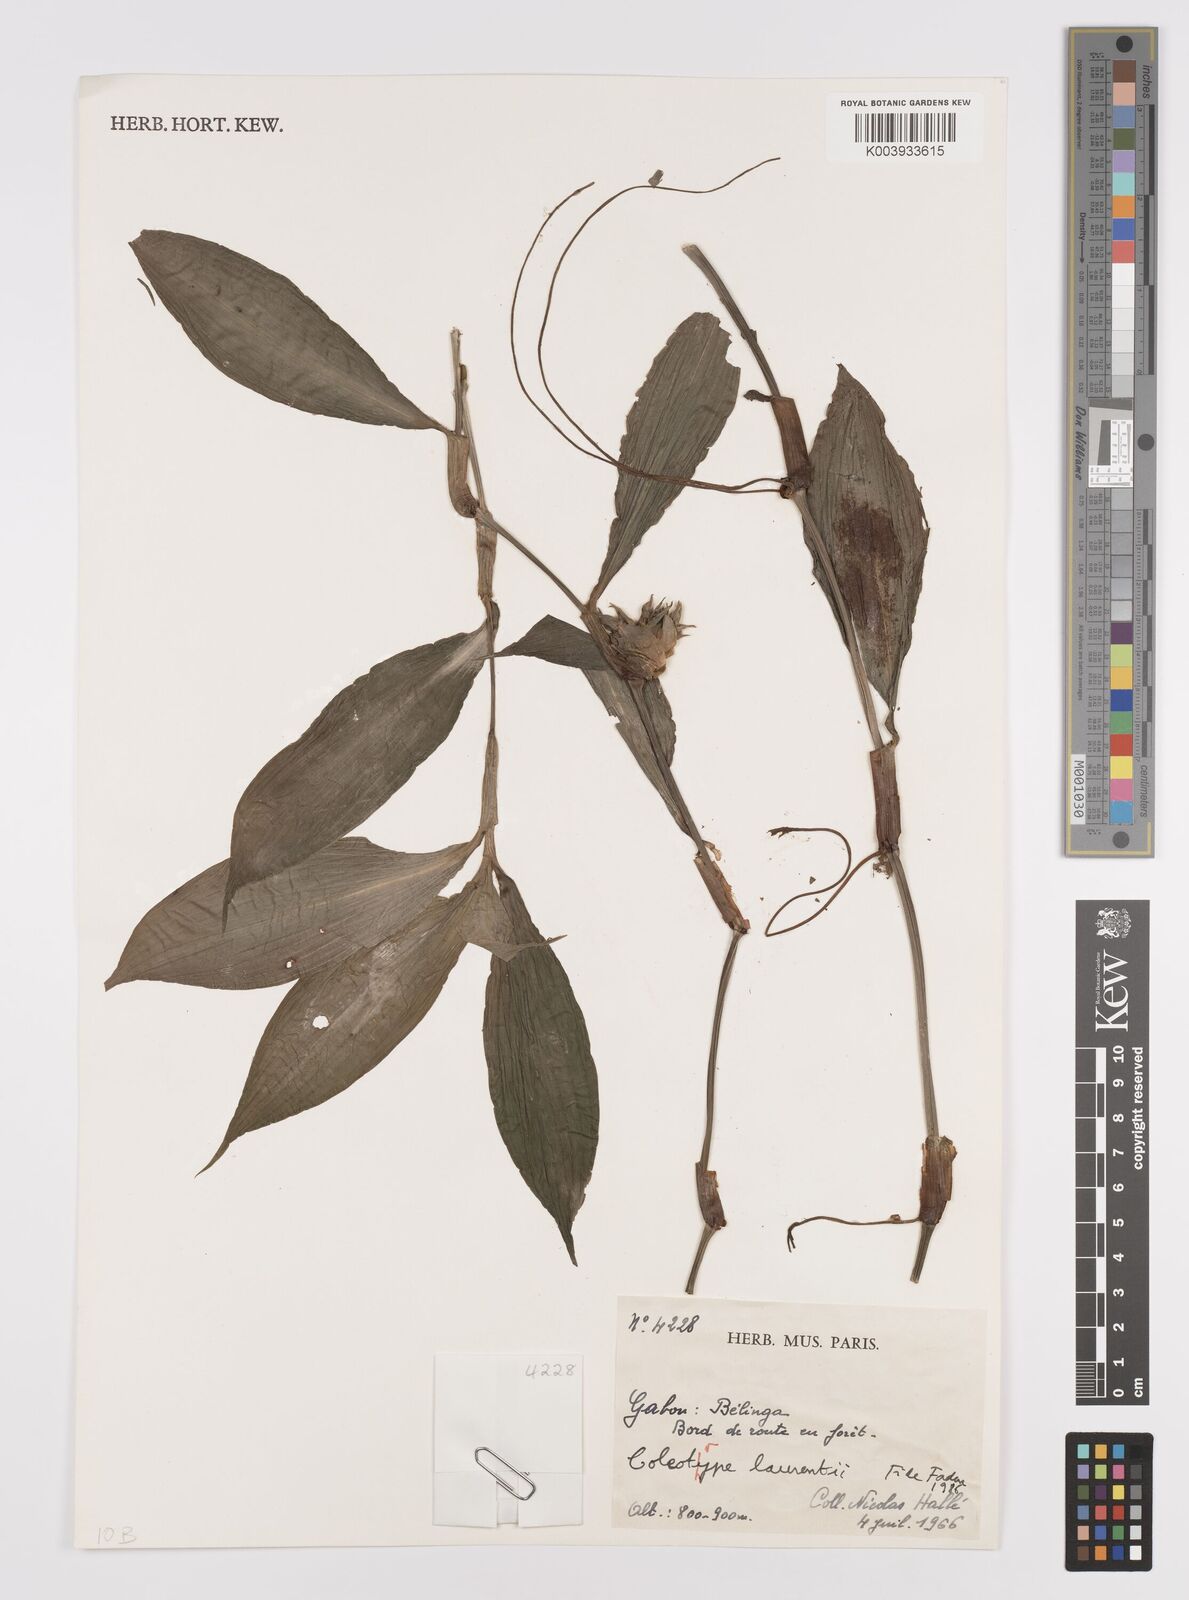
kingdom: Plantae
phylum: Tracheophyta
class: Liliopsida
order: Commelinales
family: Commelinaceae
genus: Coleotrype
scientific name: Coleotrype laurentii
